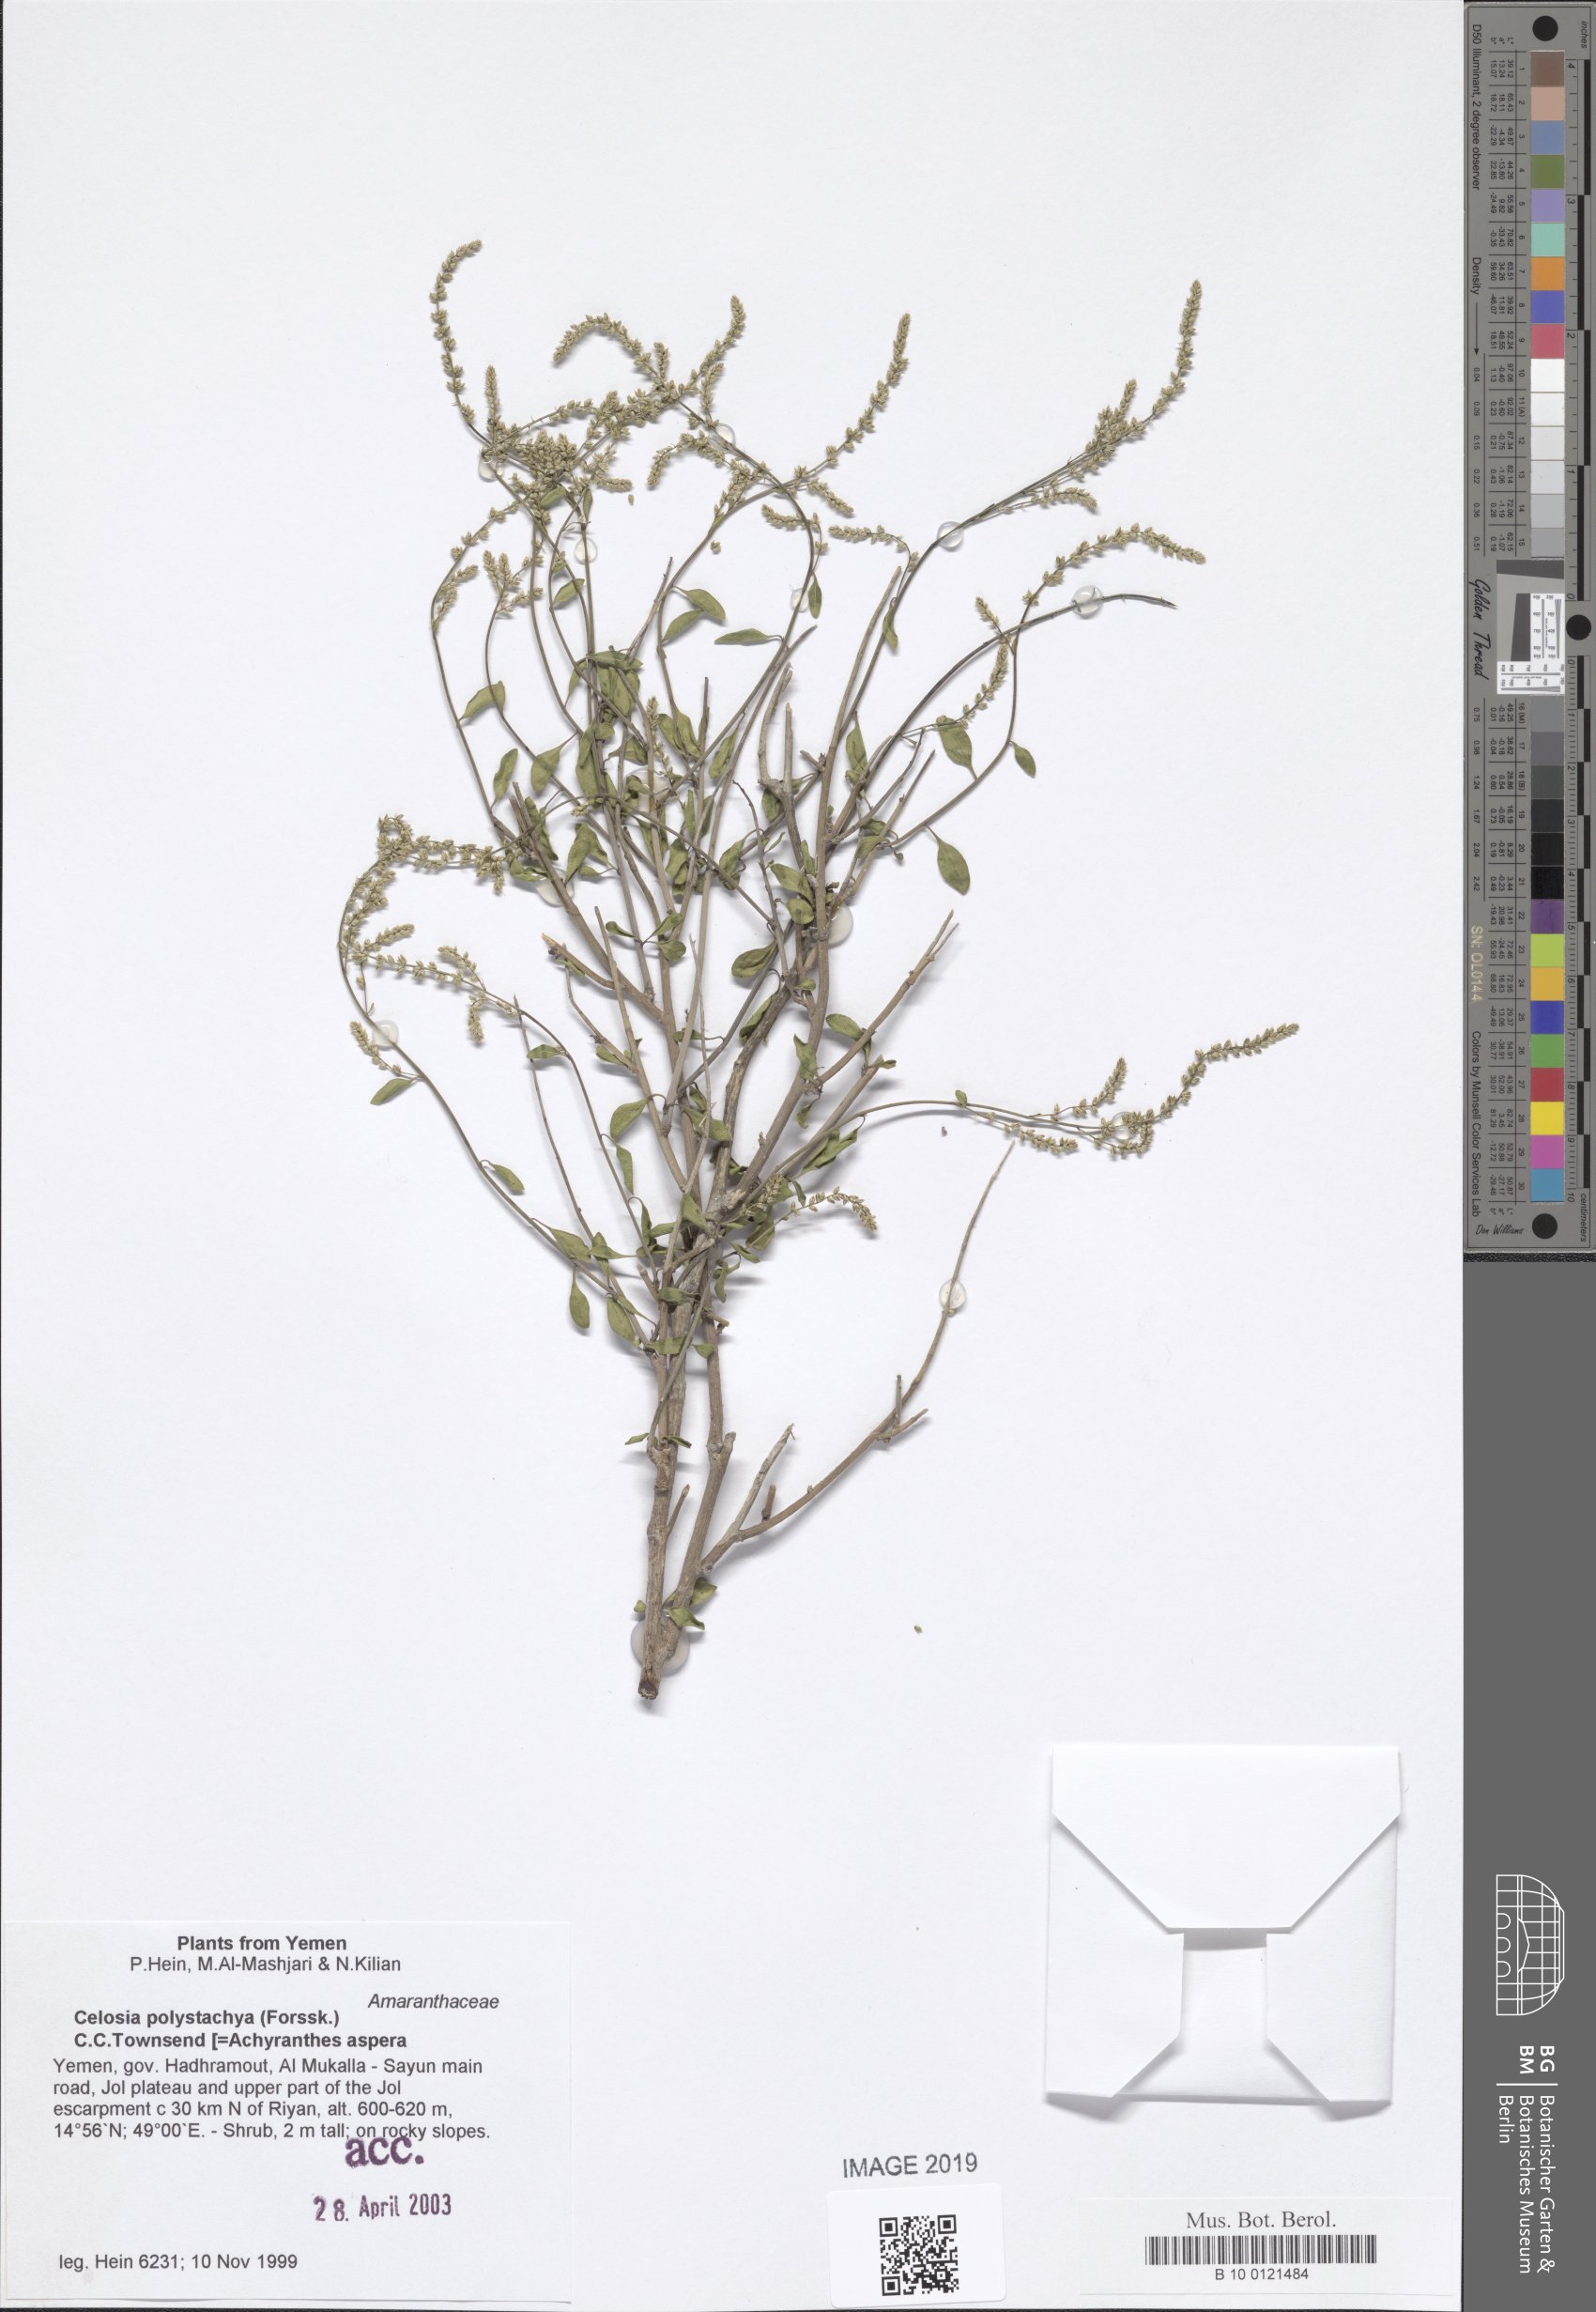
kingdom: Plantae
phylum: Tracheophyta
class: Magnoliopsida
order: Caryophyllales
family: Amaranthaceae
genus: Celosia
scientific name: Celosia polystachya
